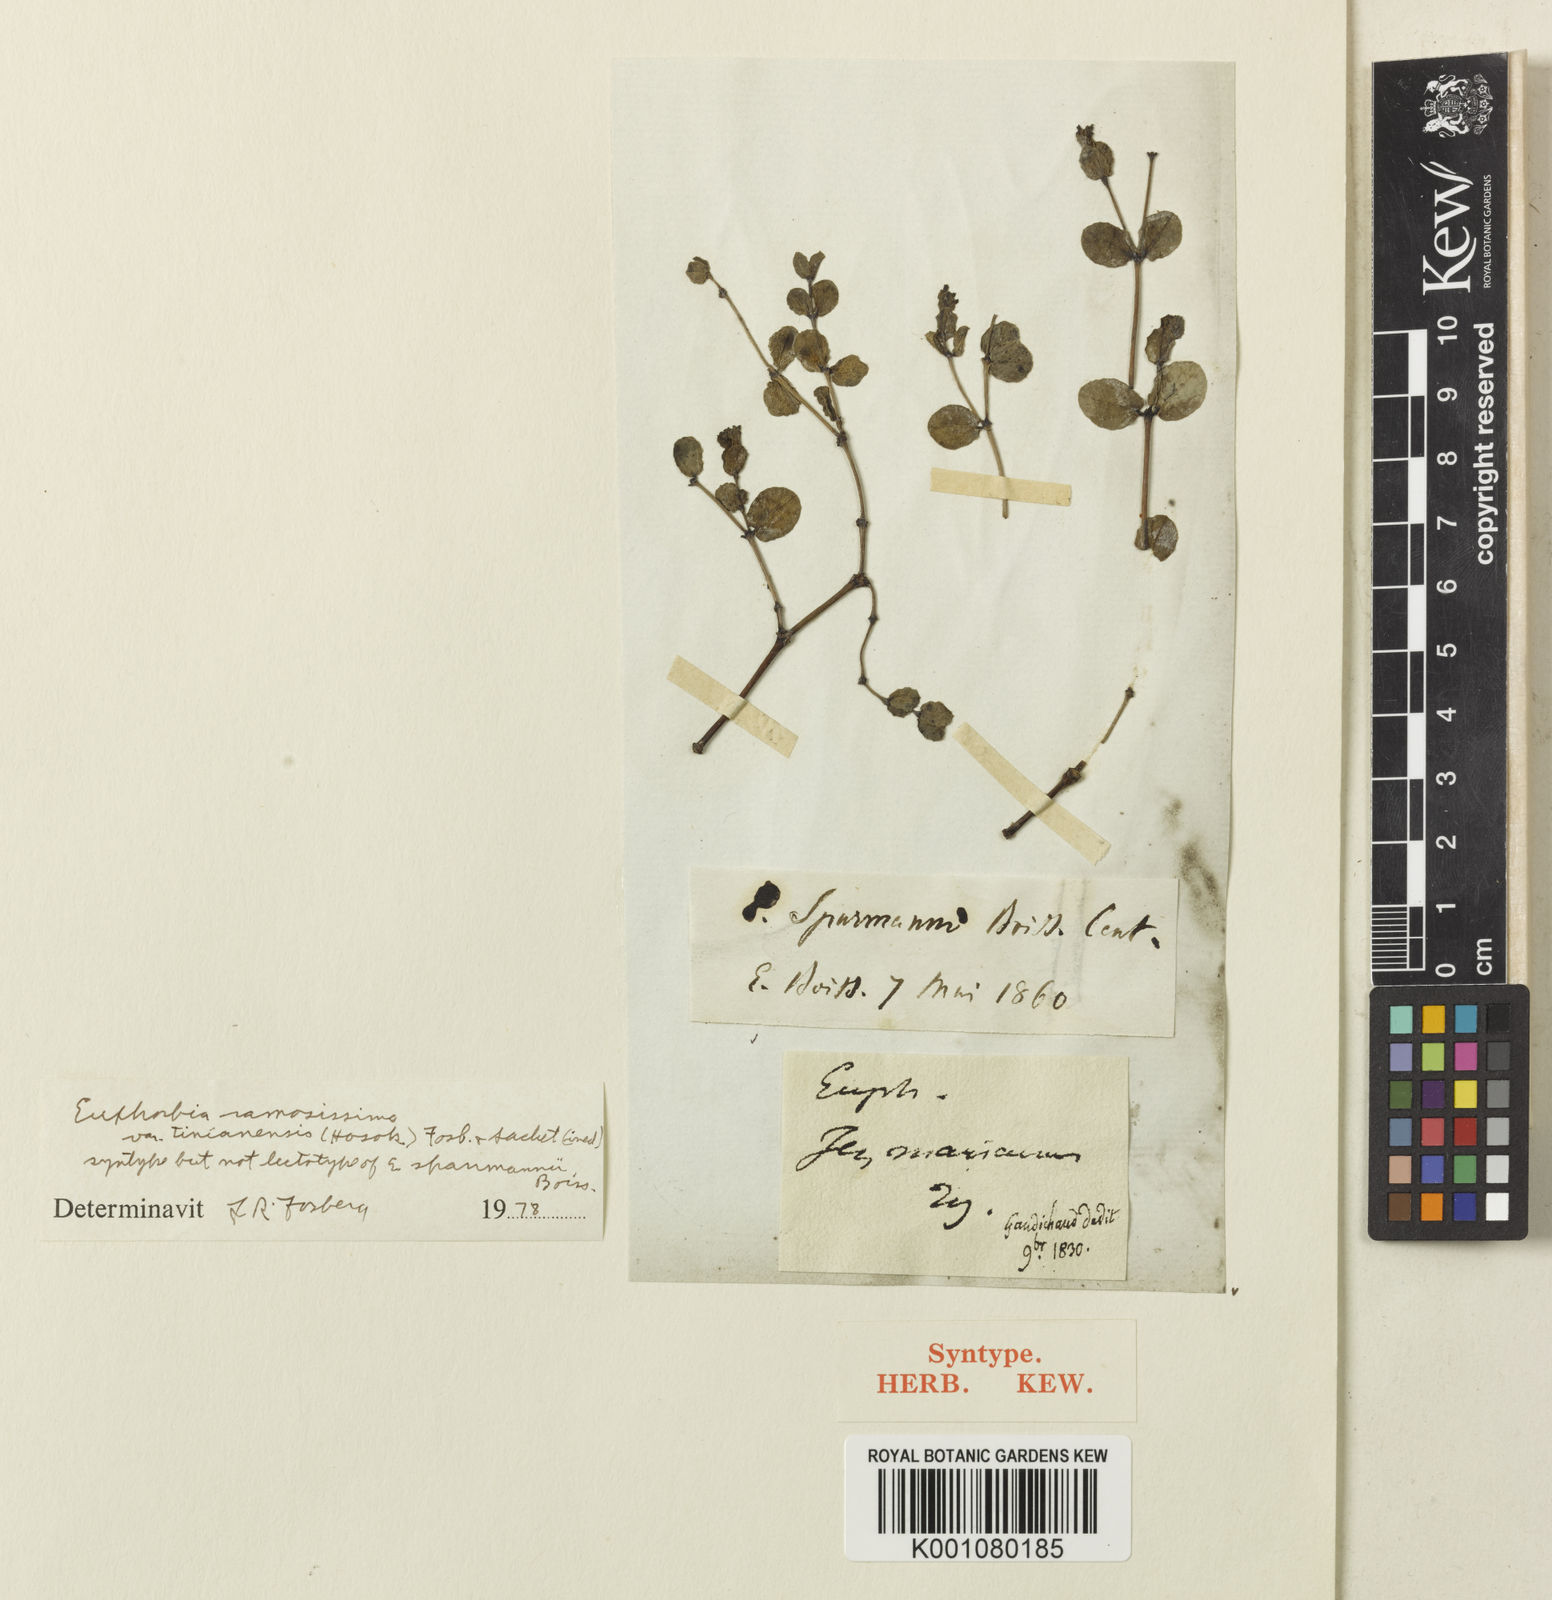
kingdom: Plantae
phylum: Tracheophyta
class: Magnoliopsida
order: Malpighiales
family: Euphorbiaceae
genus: Euphorbia
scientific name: Euphorbia
